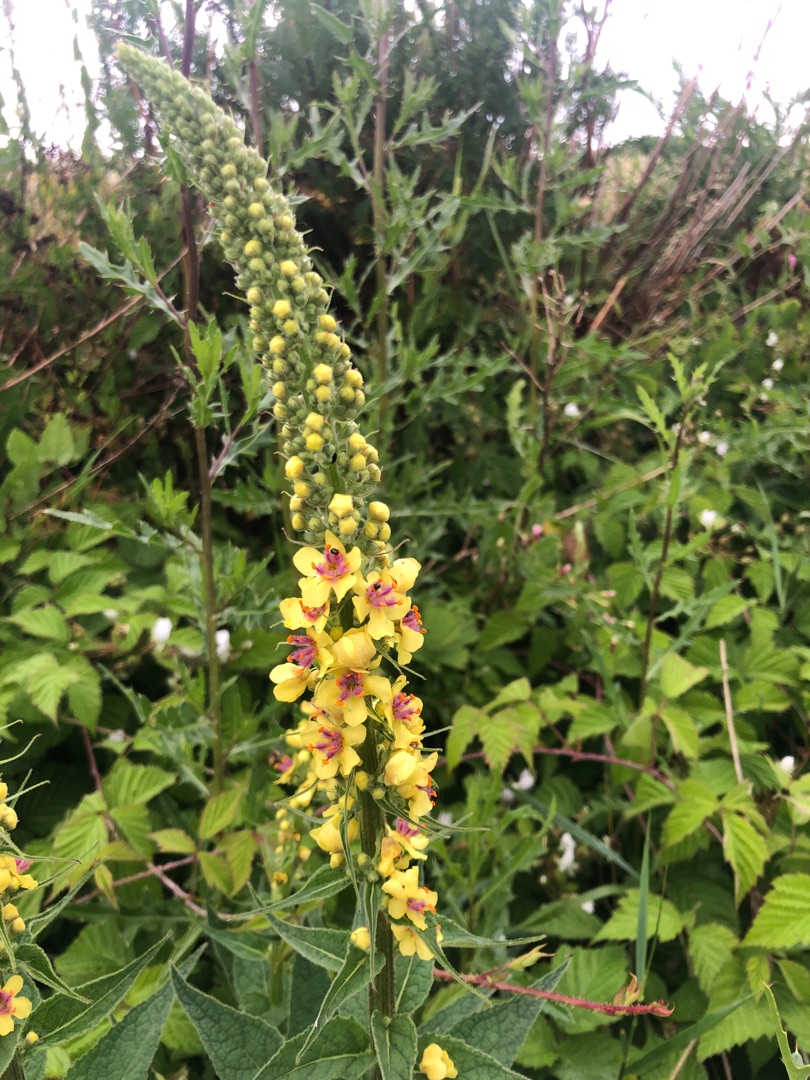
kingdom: Plantae
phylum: Tracheophyta
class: Magnoliopsida
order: Lamiales
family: Scrophulariaceae
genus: Verbascum
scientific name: Verbascum nigrum
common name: Mørk kongelys
